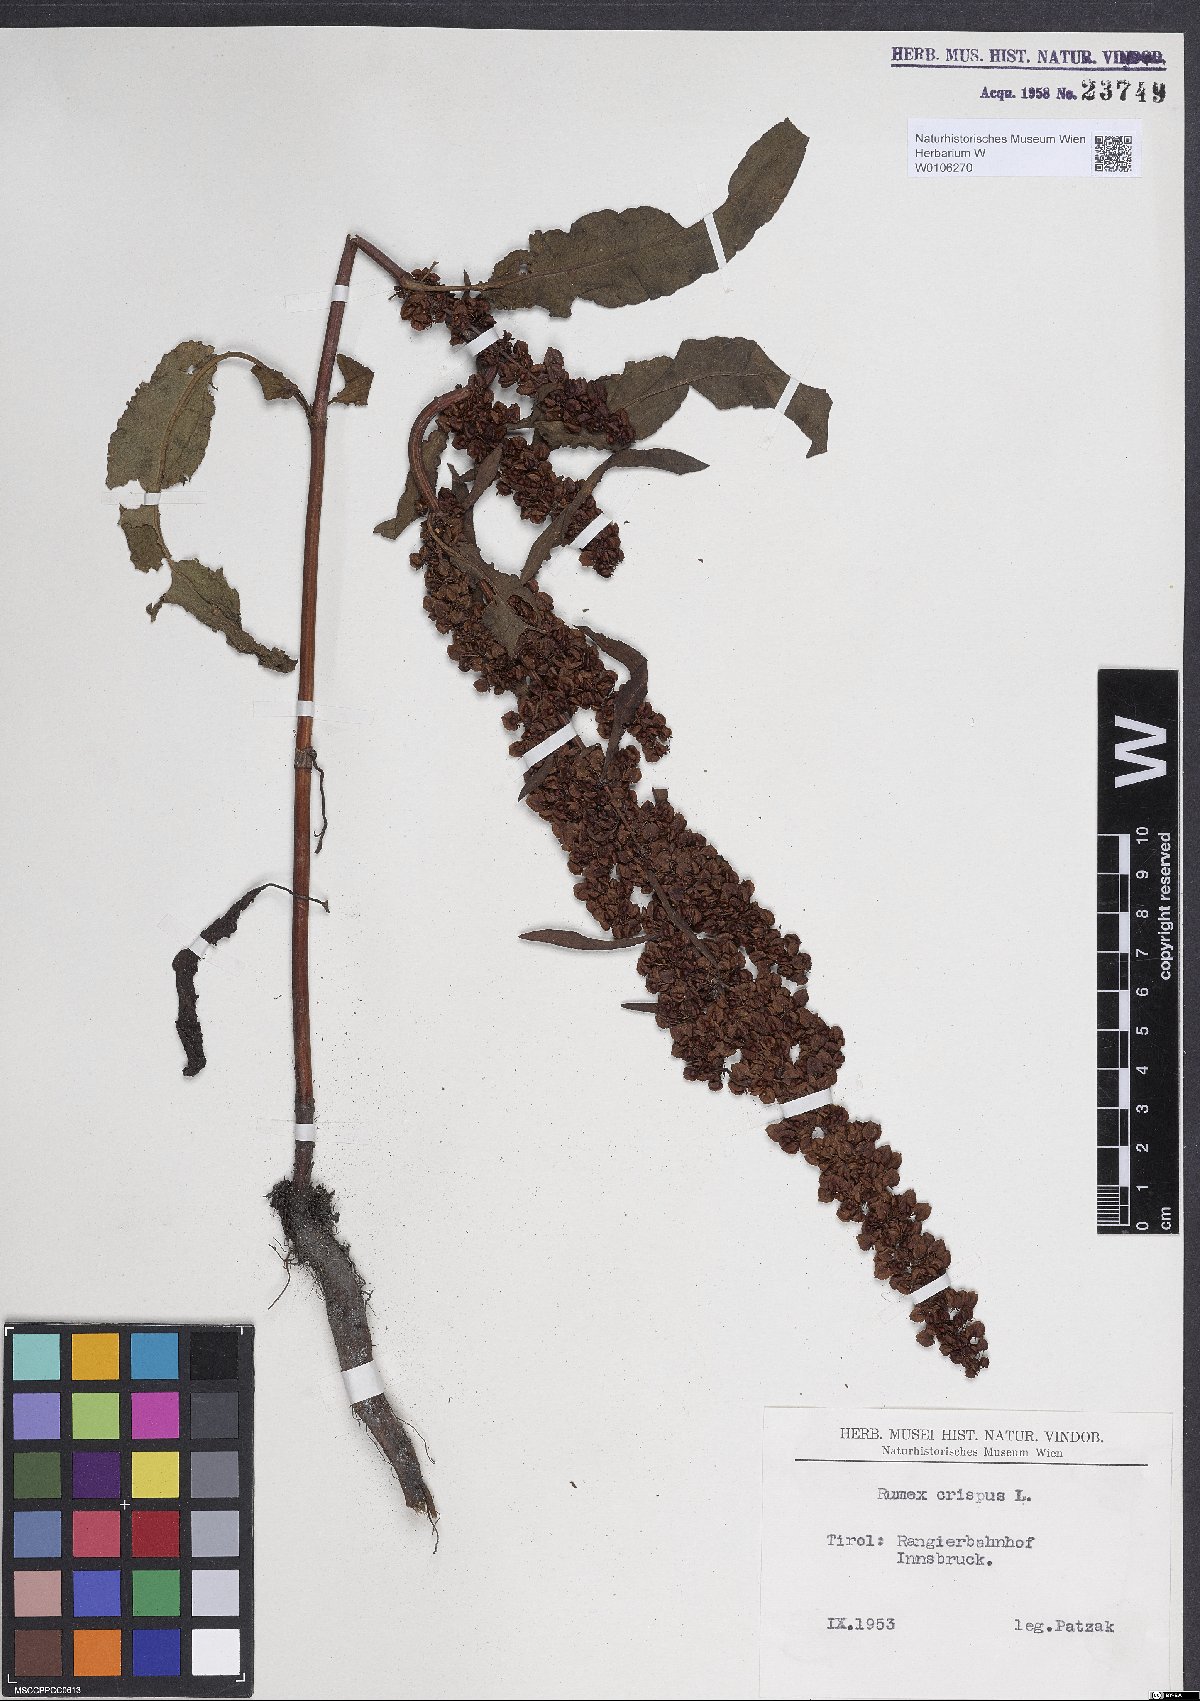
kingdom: Plantae
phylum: Tracheophyta
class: Magnoliopsida
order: Caryophyllales
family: Polygonaceae
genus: Rumex
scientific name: Rumex crispus
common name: Curled dock
